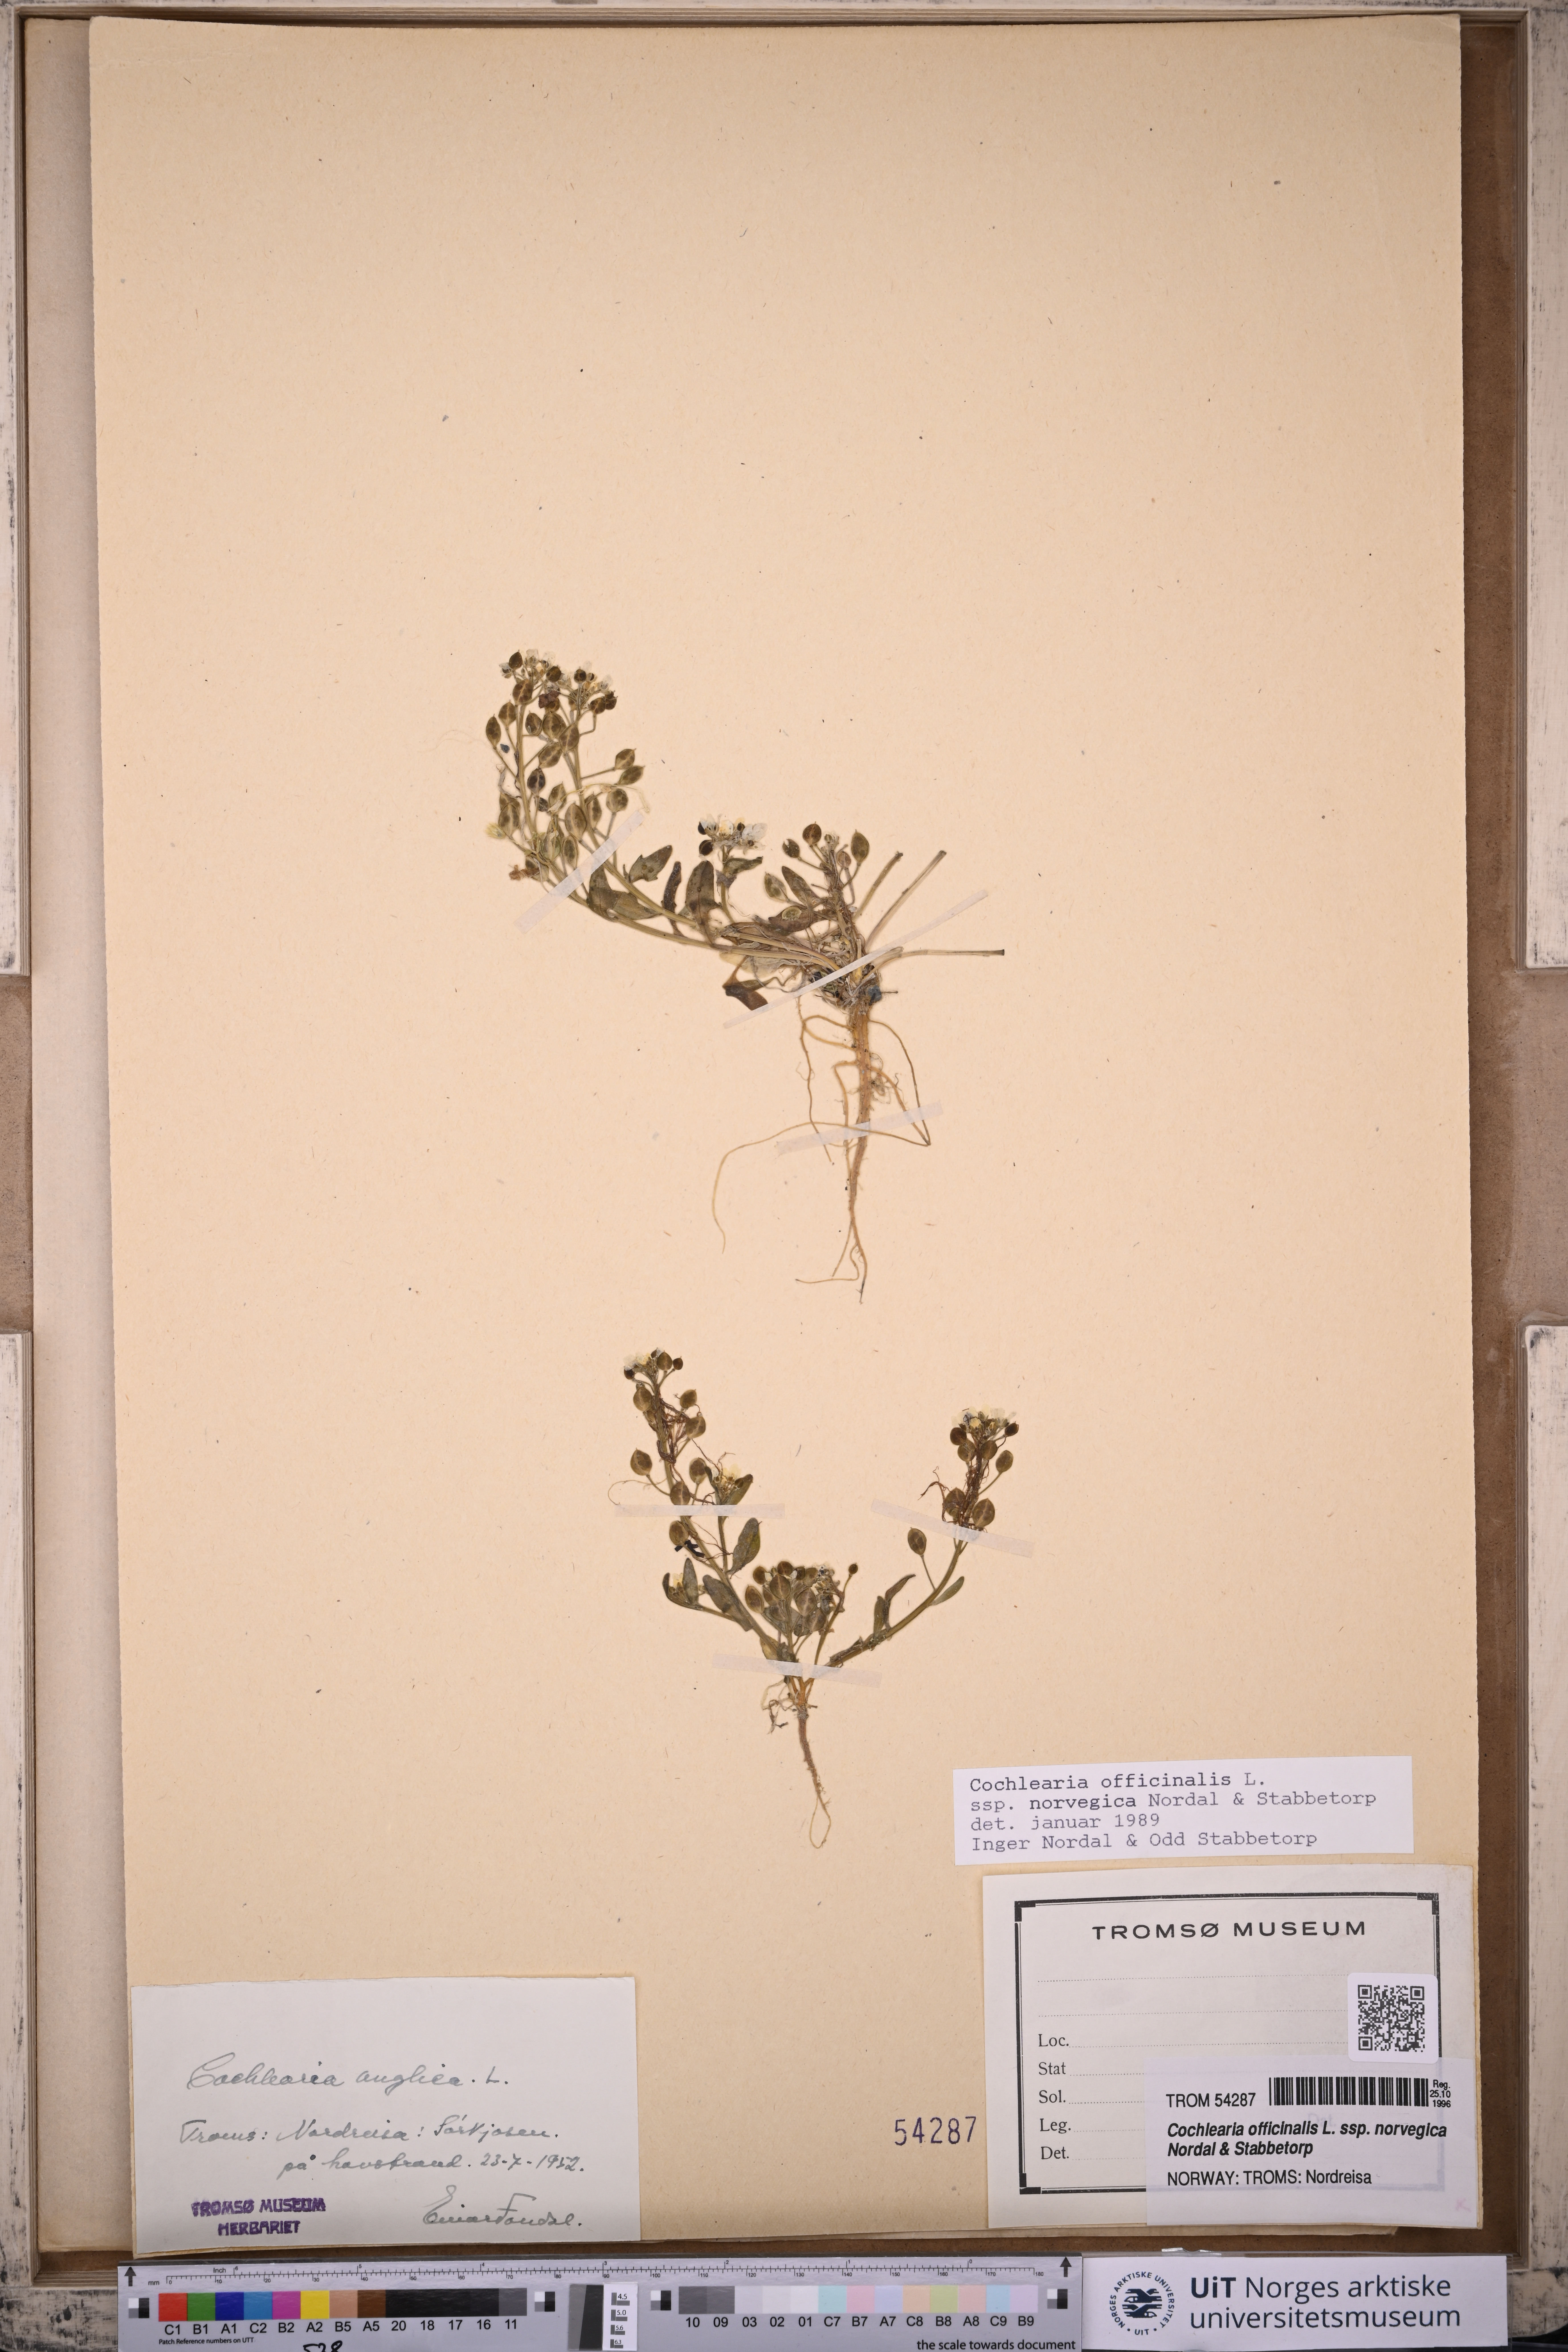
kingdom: Plantae
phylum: Tracheophyta
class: Magnoliopsida
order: Brassicales
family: Brassicaceae
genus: Cochlearia
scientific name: Cochlearia officinalis
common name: Scurvy-grass
